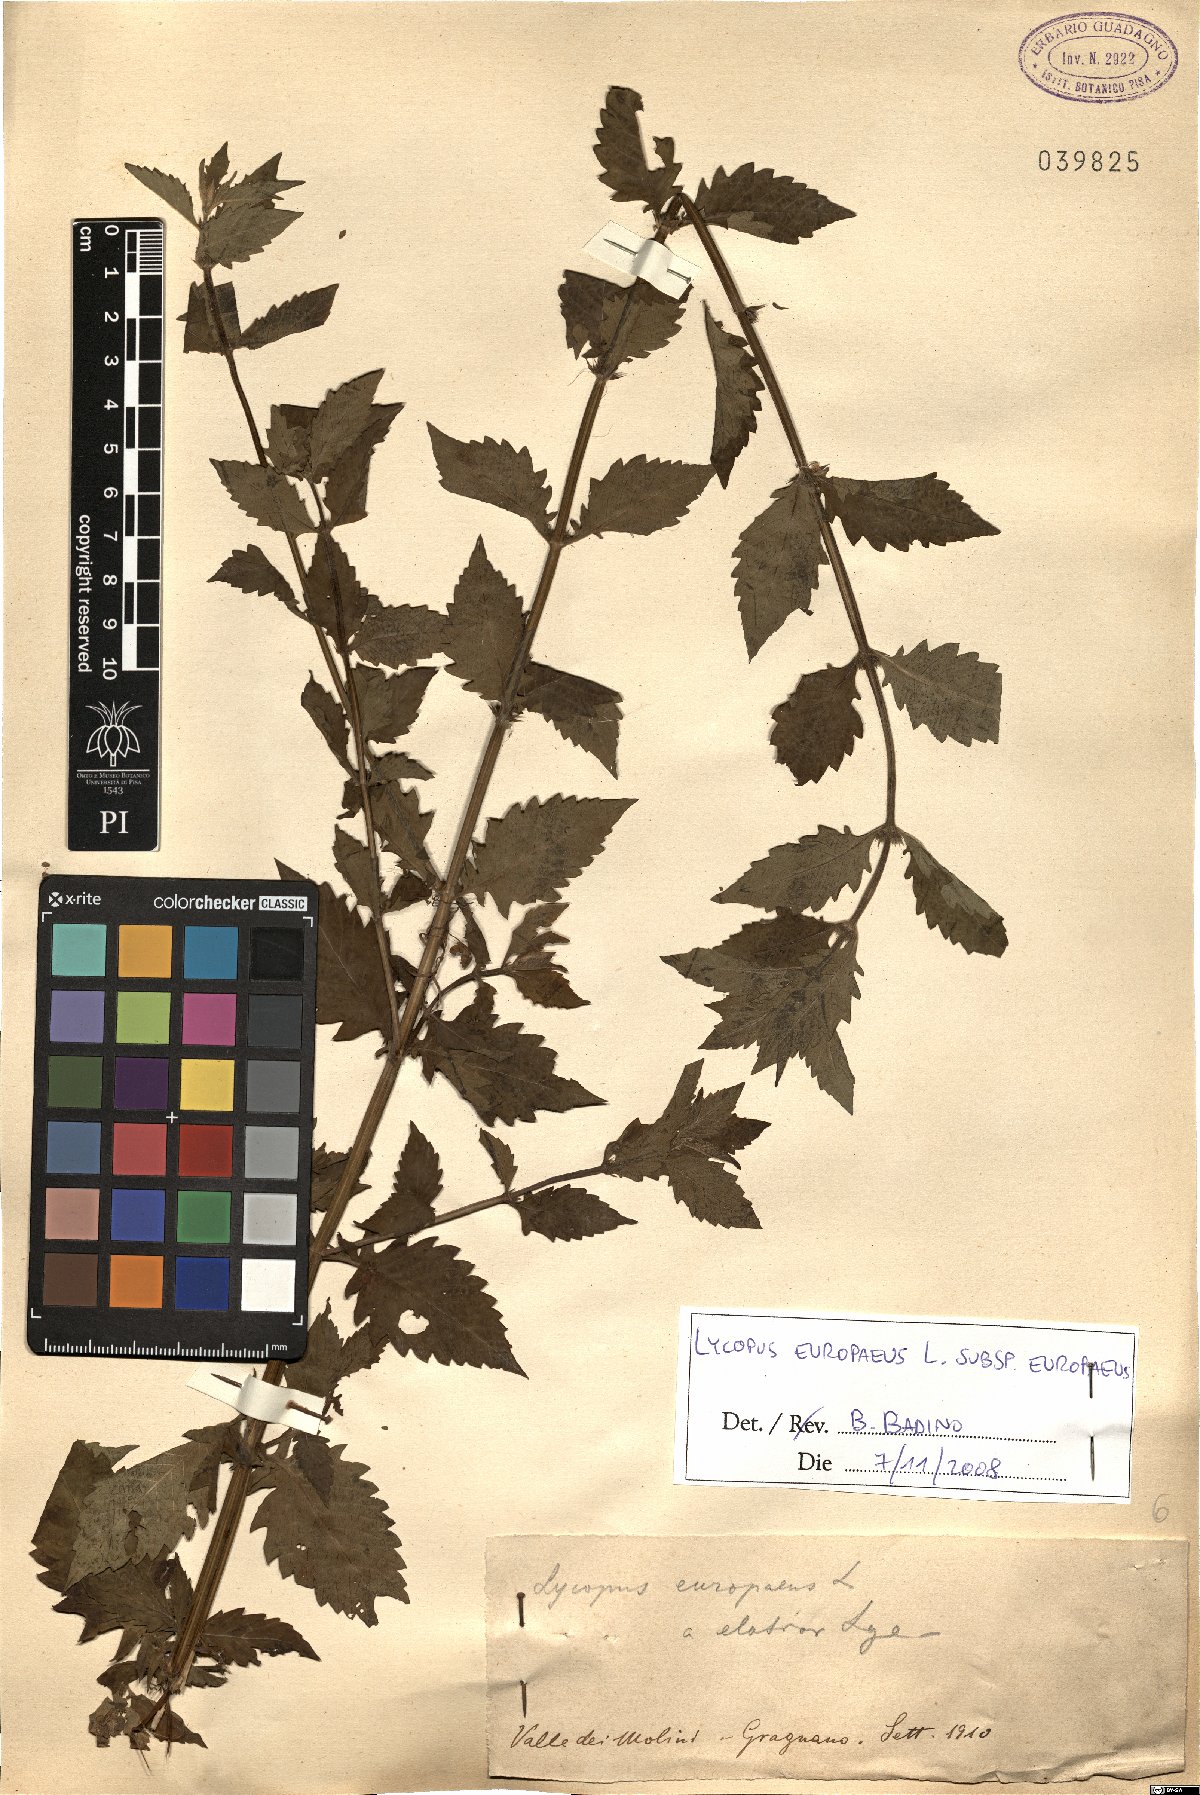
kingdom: Plantae
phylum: Tracheophyta
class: Magnoliopsida
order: Lamiales
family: Lamiaceae
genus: Lycopus
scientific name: Lycopus europaeus
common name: European bugleweed
